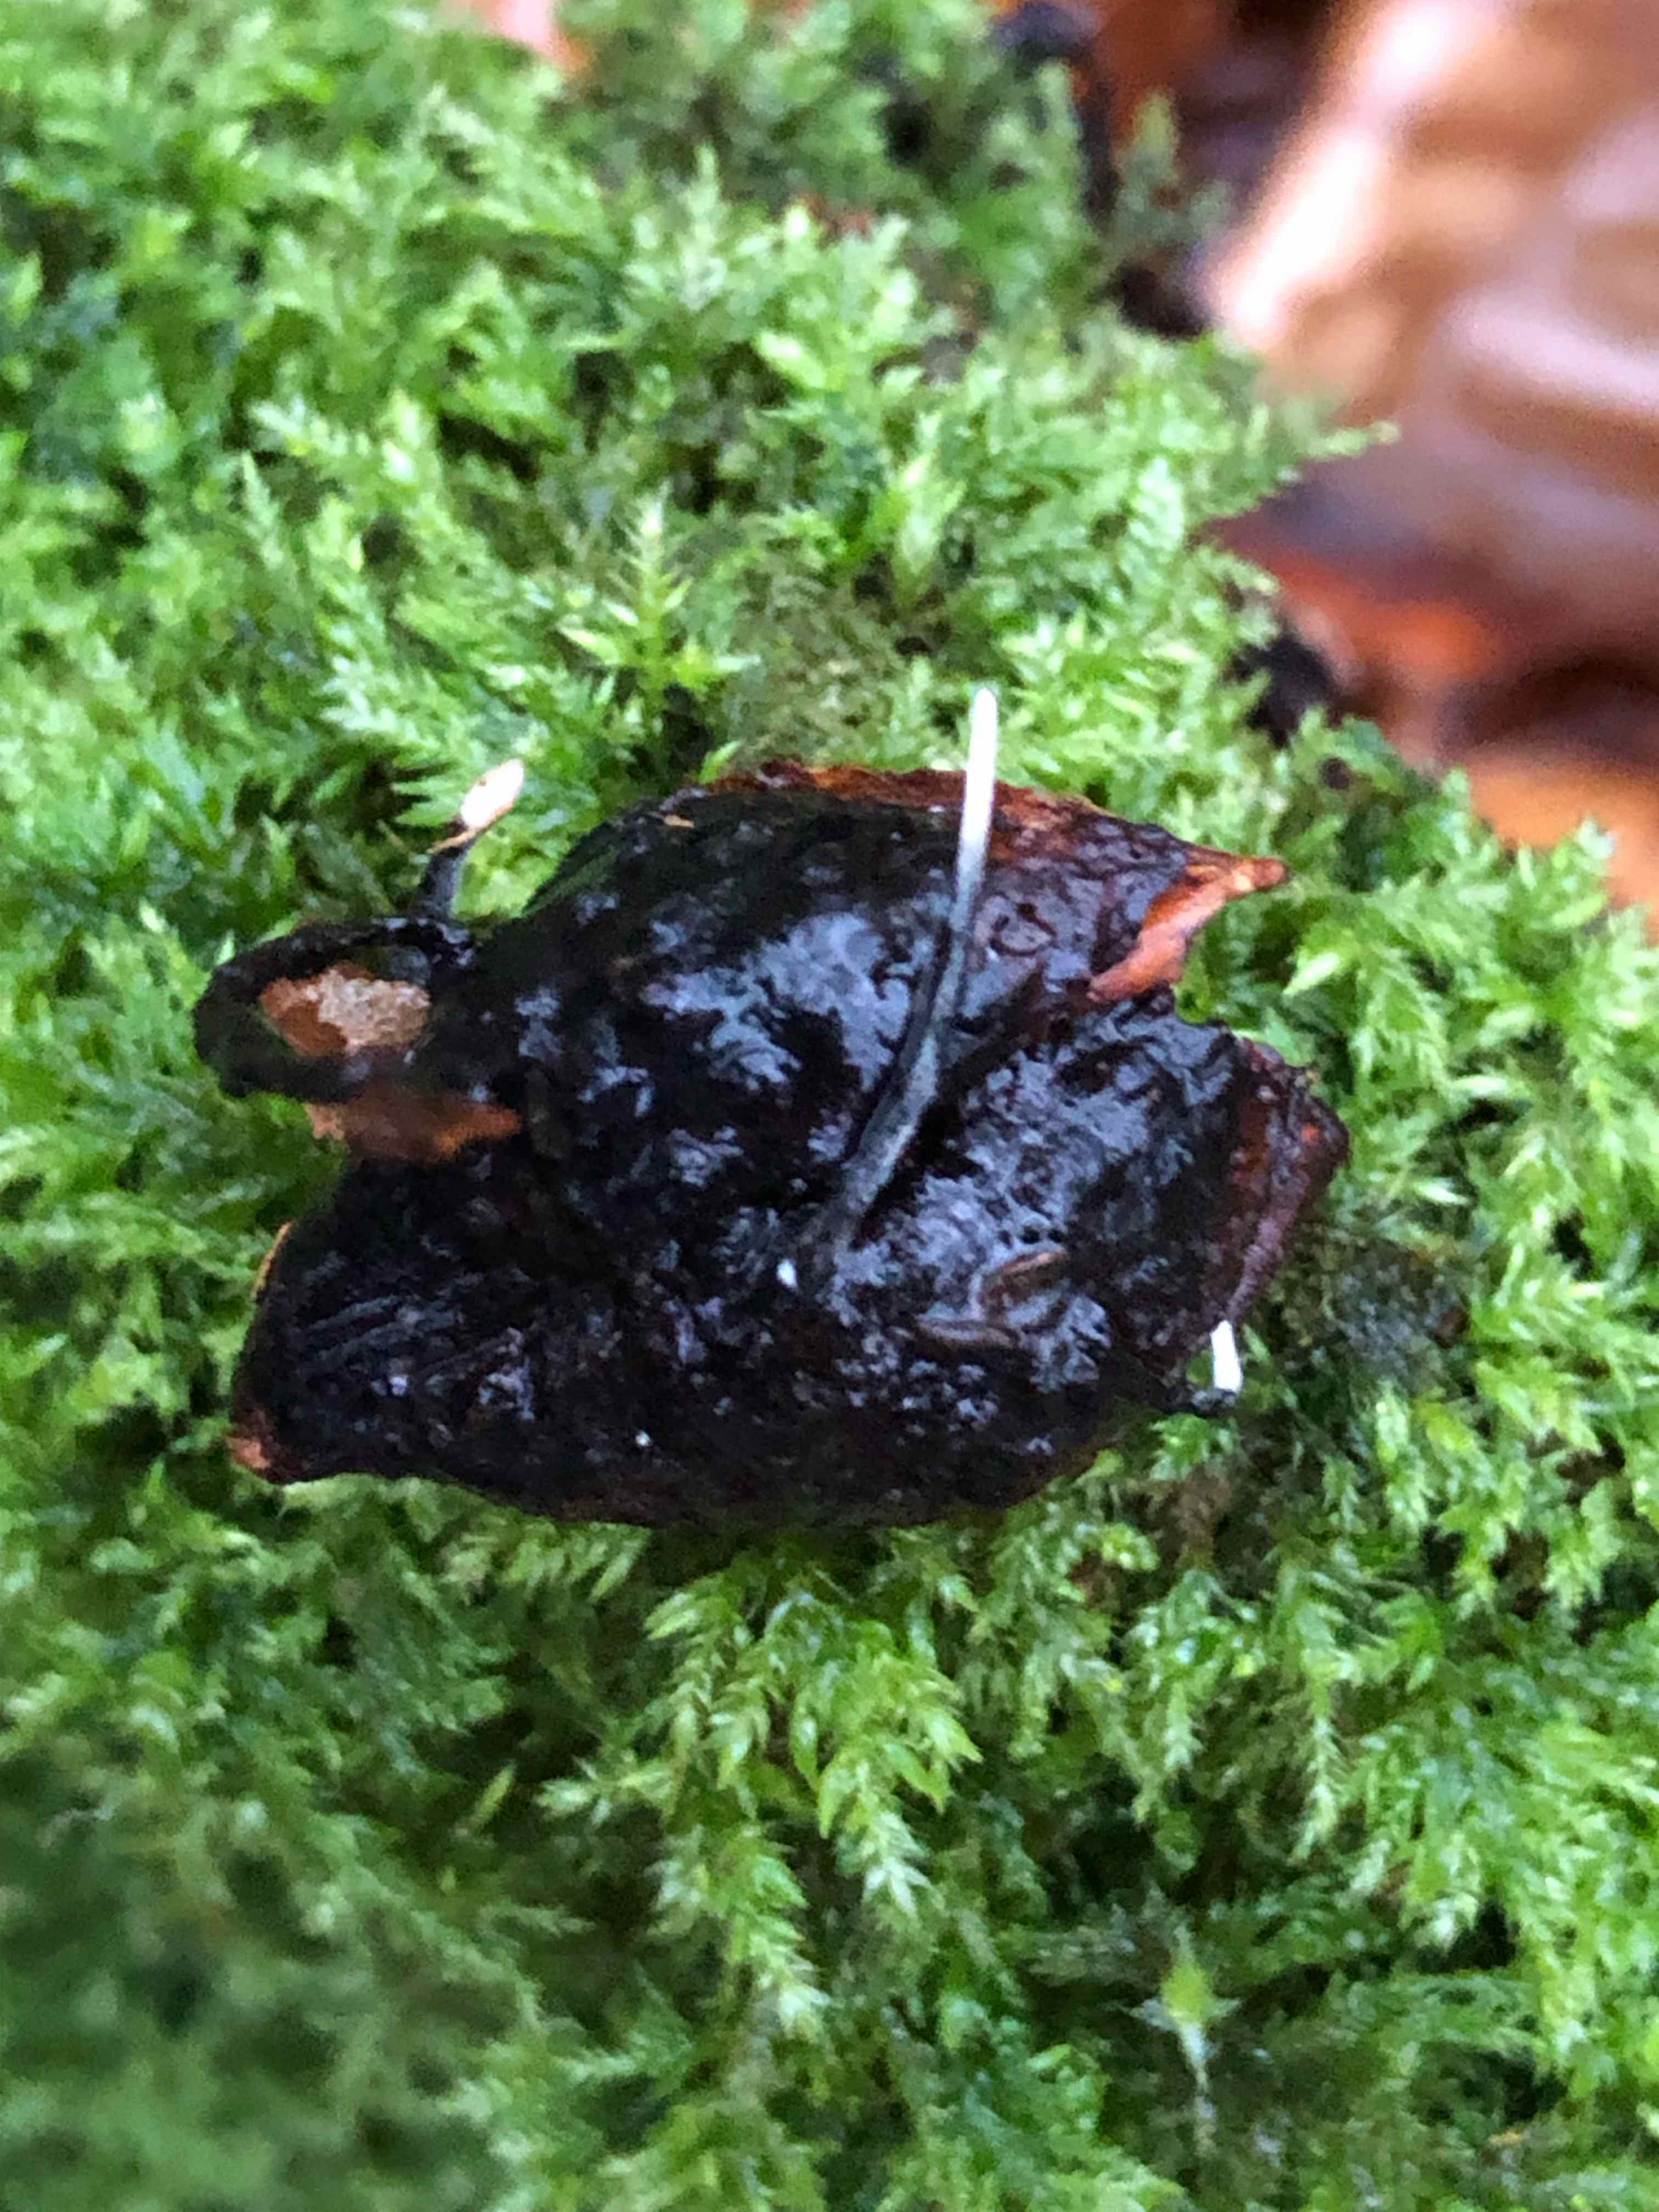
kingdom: Fungi
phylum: Ascomycota
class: Sordariomycetes
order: Xylariales
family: Xylariaceae
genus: Xylaria
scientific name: Xylaria carpophila
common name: bogskål-stødsvamp
